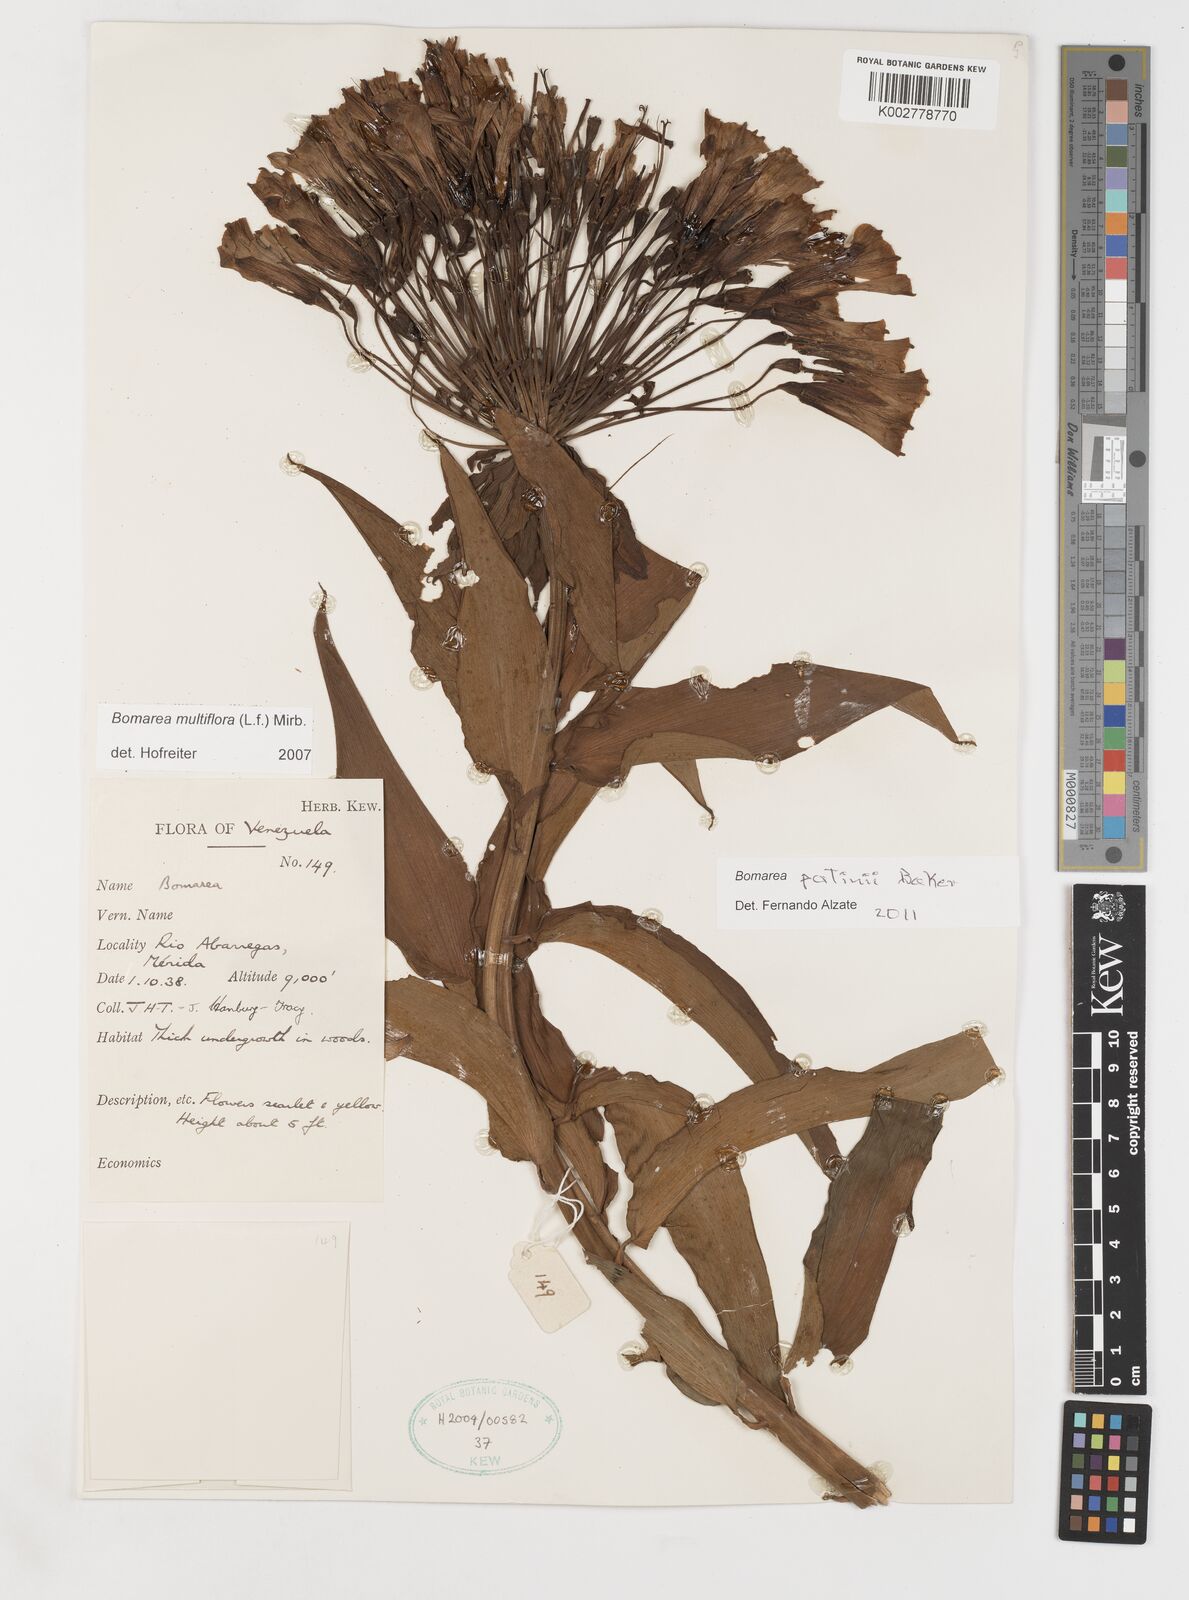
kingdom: Plantae
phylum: Tracheophyta
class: Liliopsida
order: Liliales
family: Alstroemeriaceae
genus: Bomarea
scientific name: Bomarea patinii
